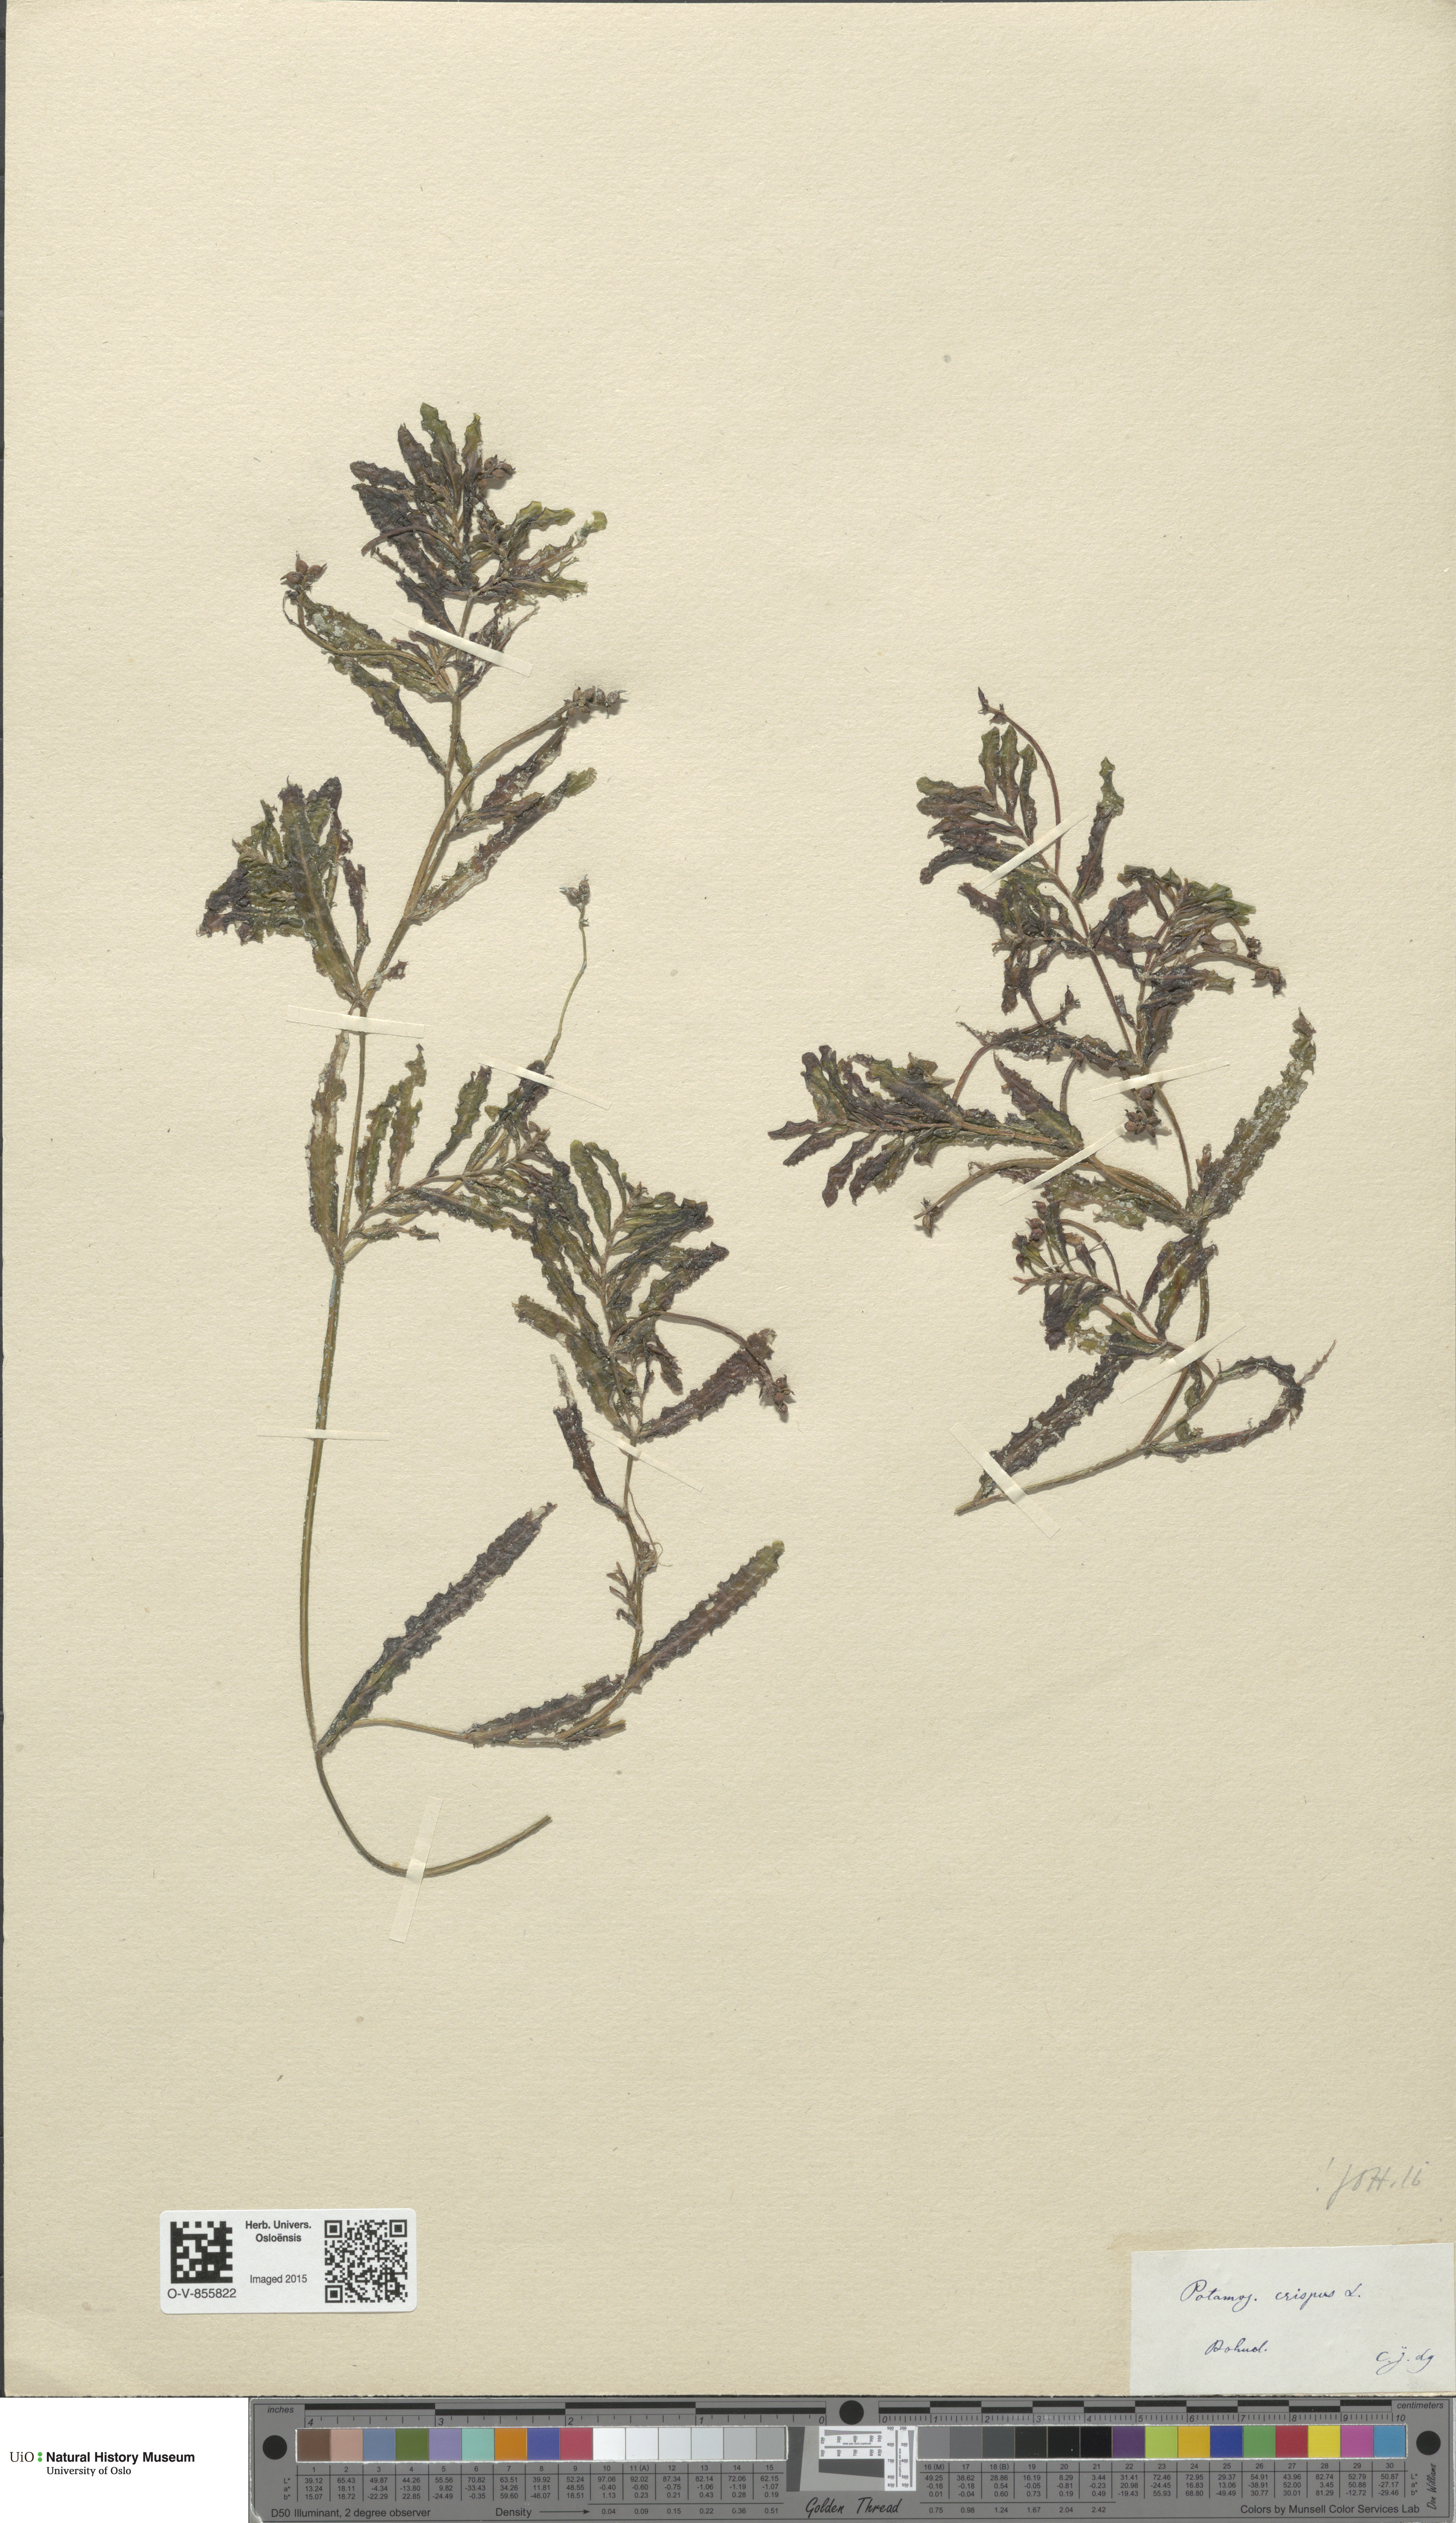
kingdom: Plantae
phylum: Tracheophyta
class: Liliopsida
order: Alismatales
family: Potamogetonaceae
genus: Potamogeton
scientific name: Potamogeton crispus
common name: Curled pondweed
